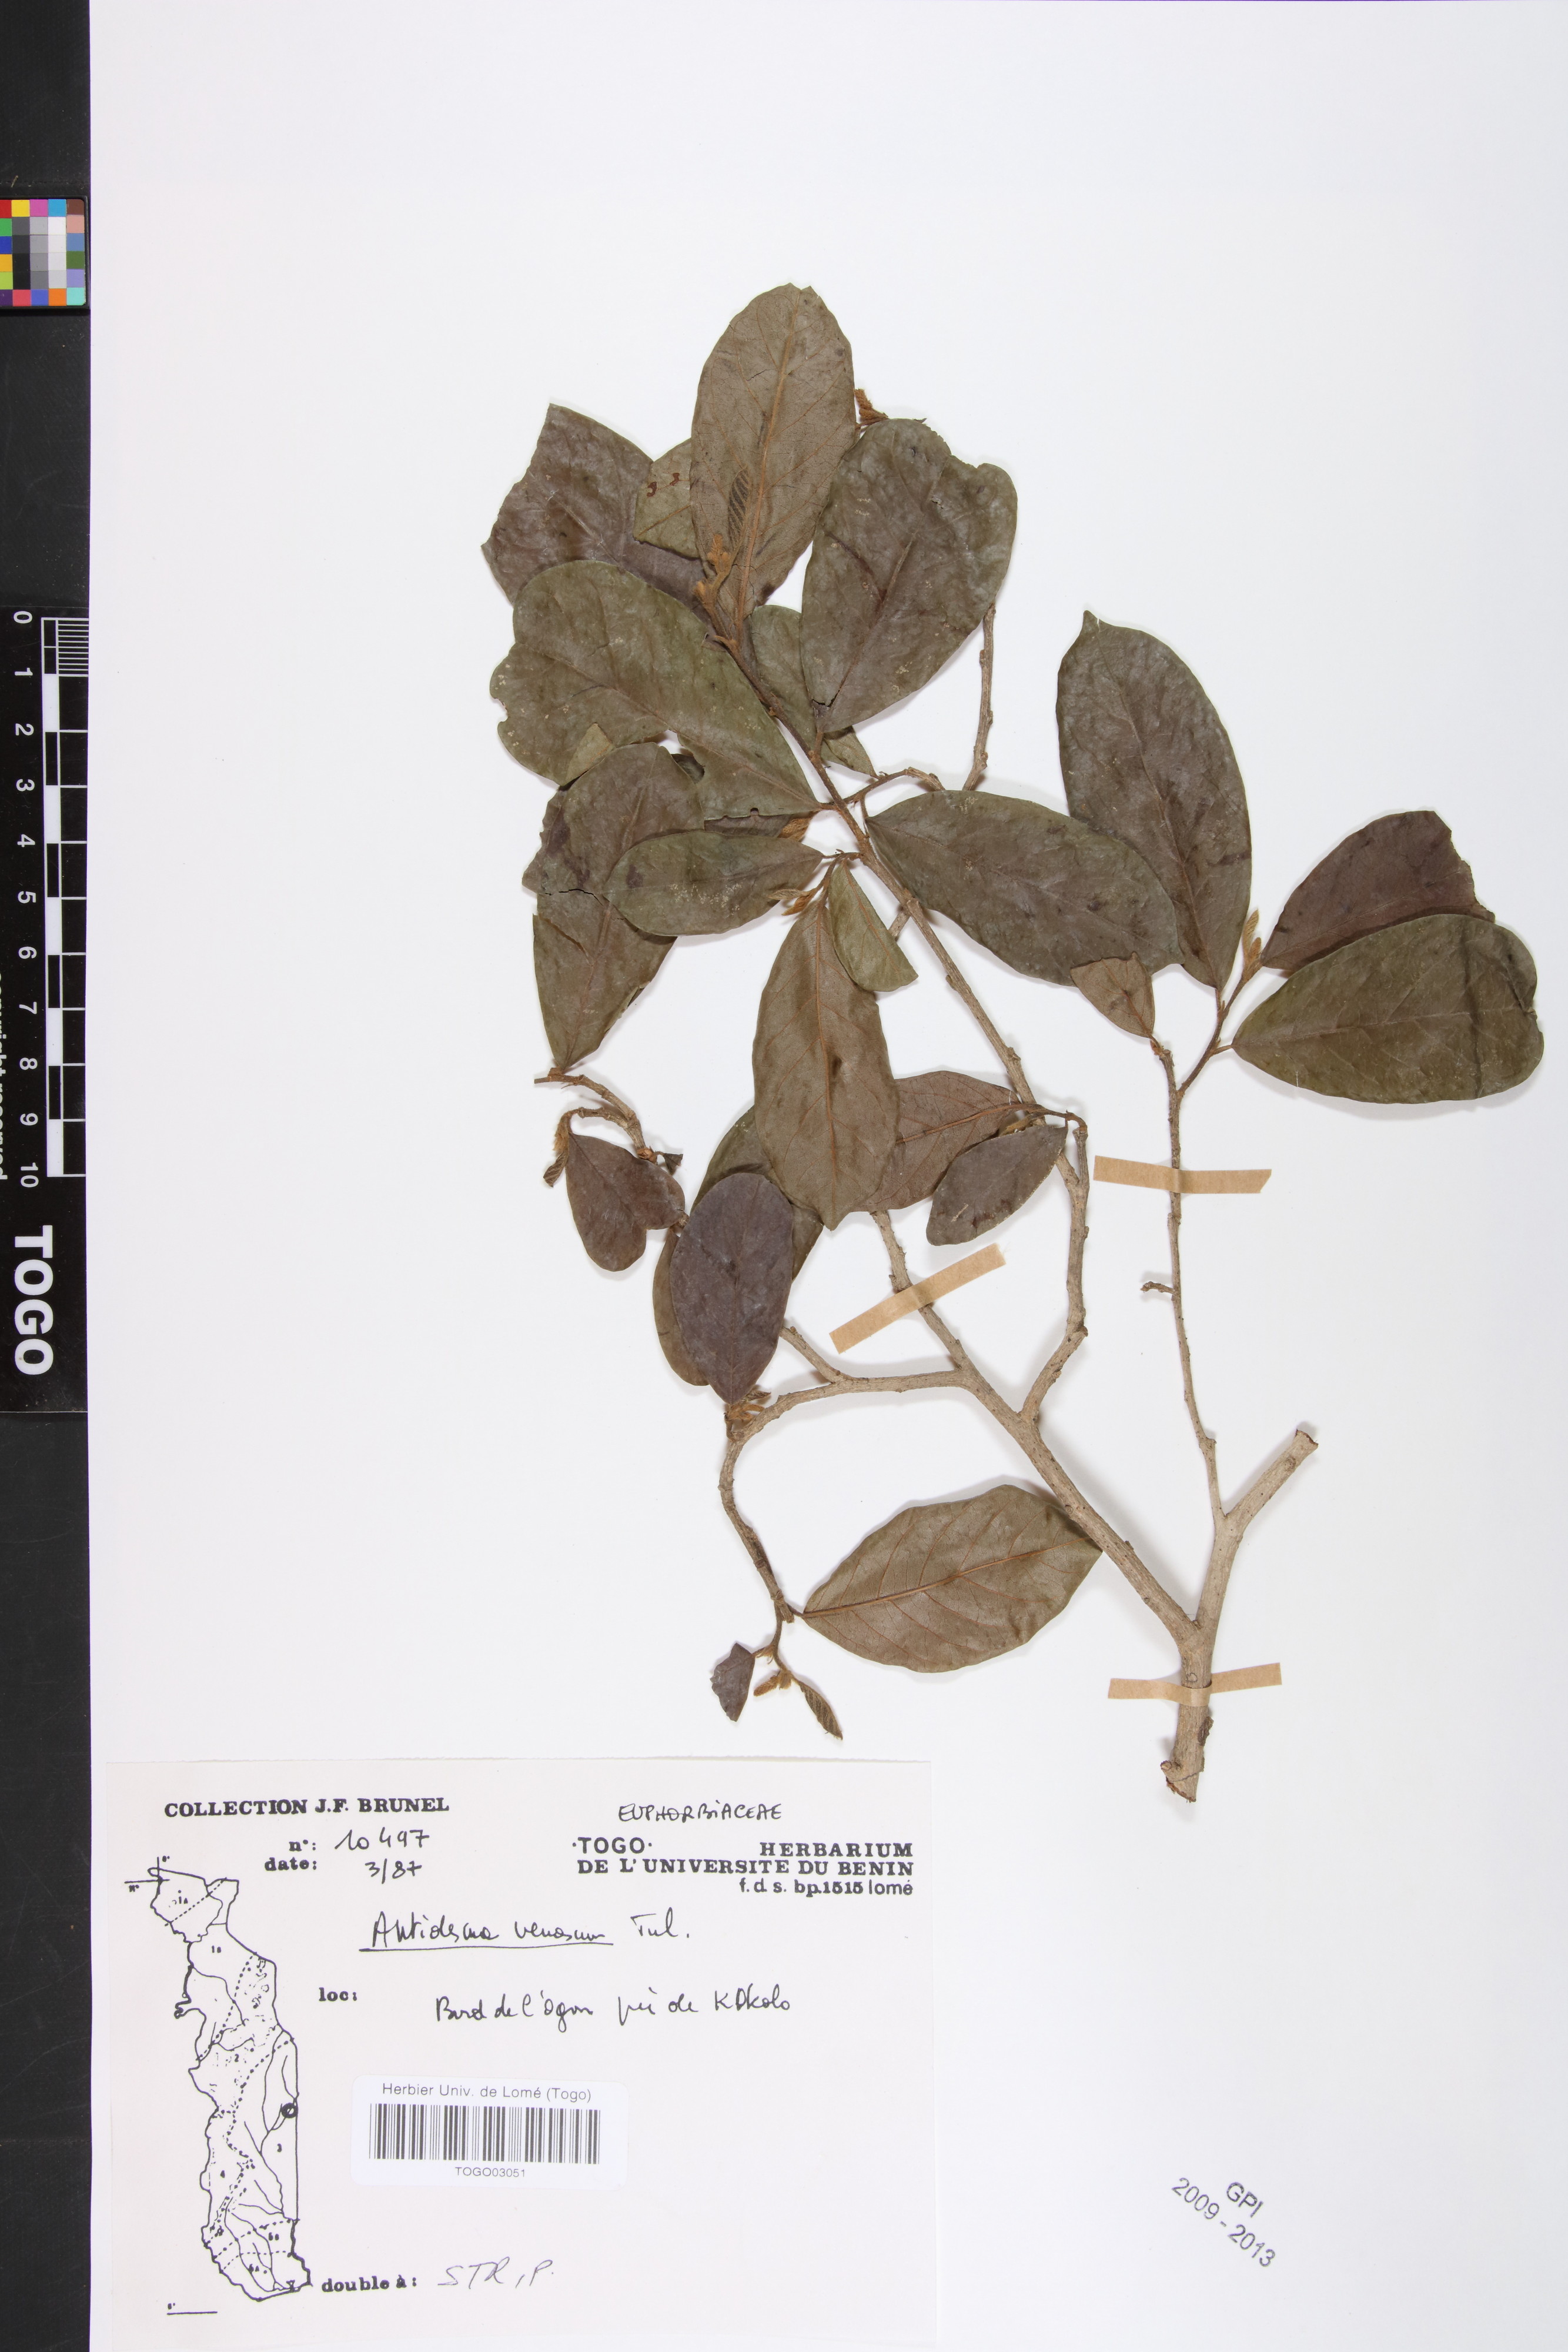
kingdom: Plantae
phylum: Tracheophyta
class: Magnoliopsida
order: Malpighiales
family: Phyllanthaceae
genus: Antidesma
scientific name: Antidesma venosum
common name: Tassel-berry
